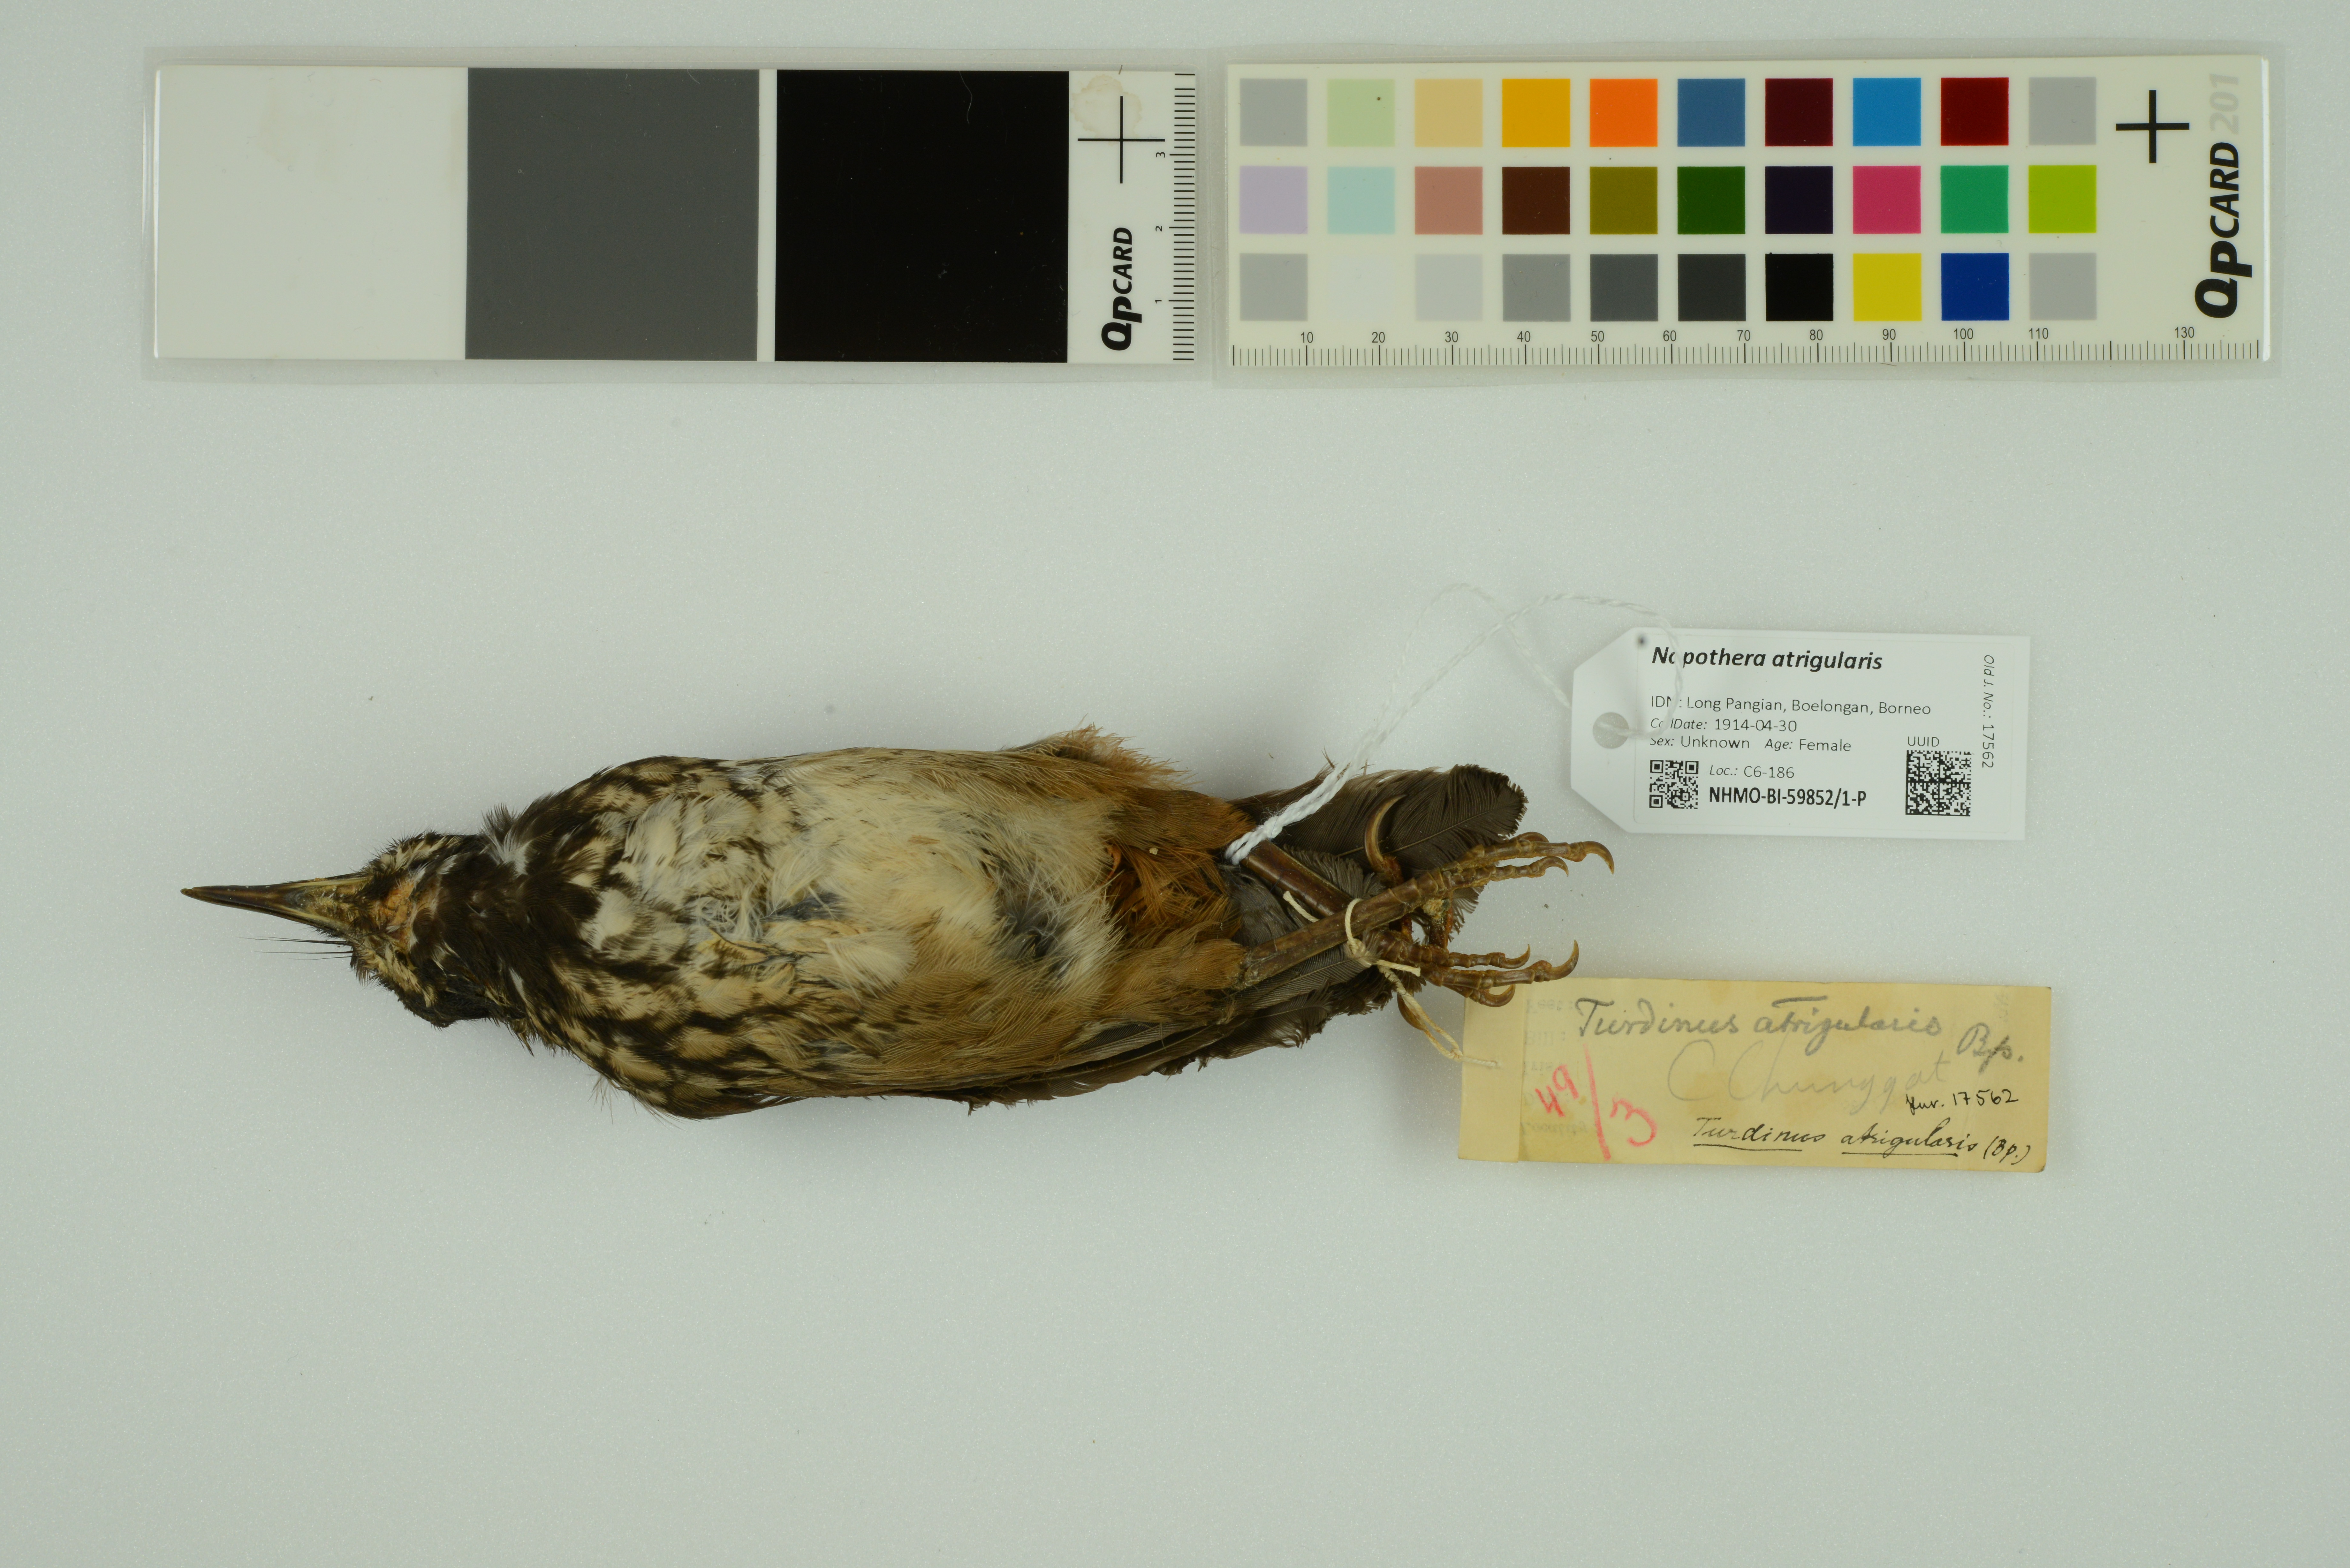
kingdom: Animalia
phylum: Chordata
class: Aves
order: Passeriformes
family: Pellorneidae
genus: Napothera
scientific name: Napothera atrigularis
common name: Black-throated wren-babbler
